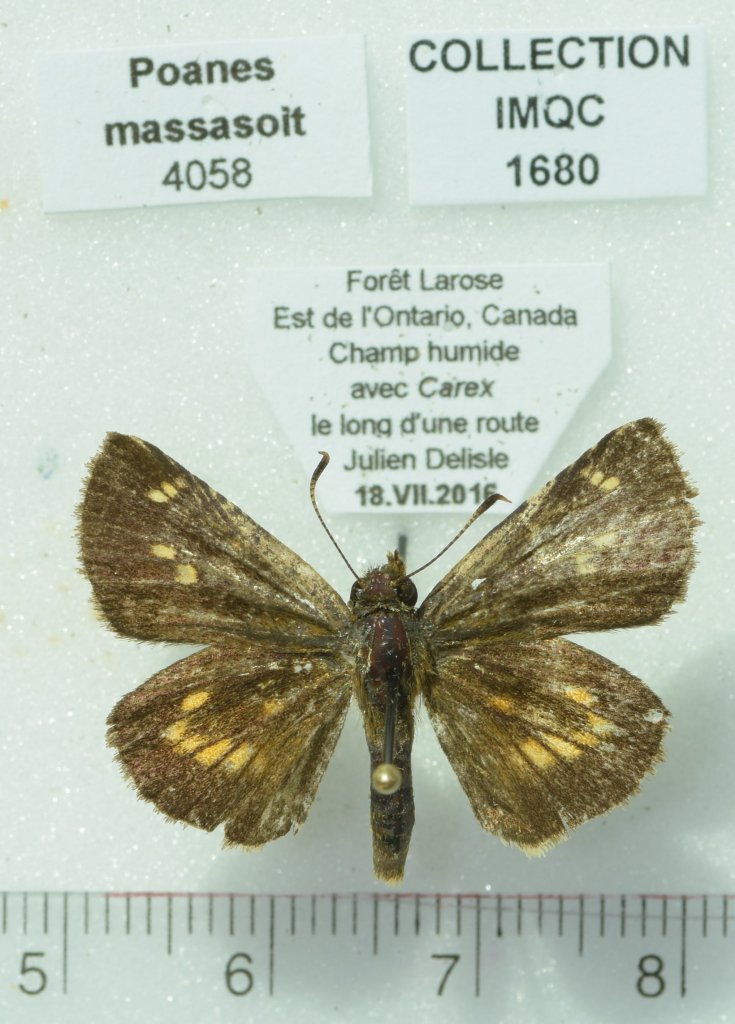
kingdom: Animalia
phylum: Arthropoda
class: Insecta
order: Lepidoptera
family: Hesperiidae
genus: Poanes
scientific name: Poanes massasoit
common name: Mulberry Wing
